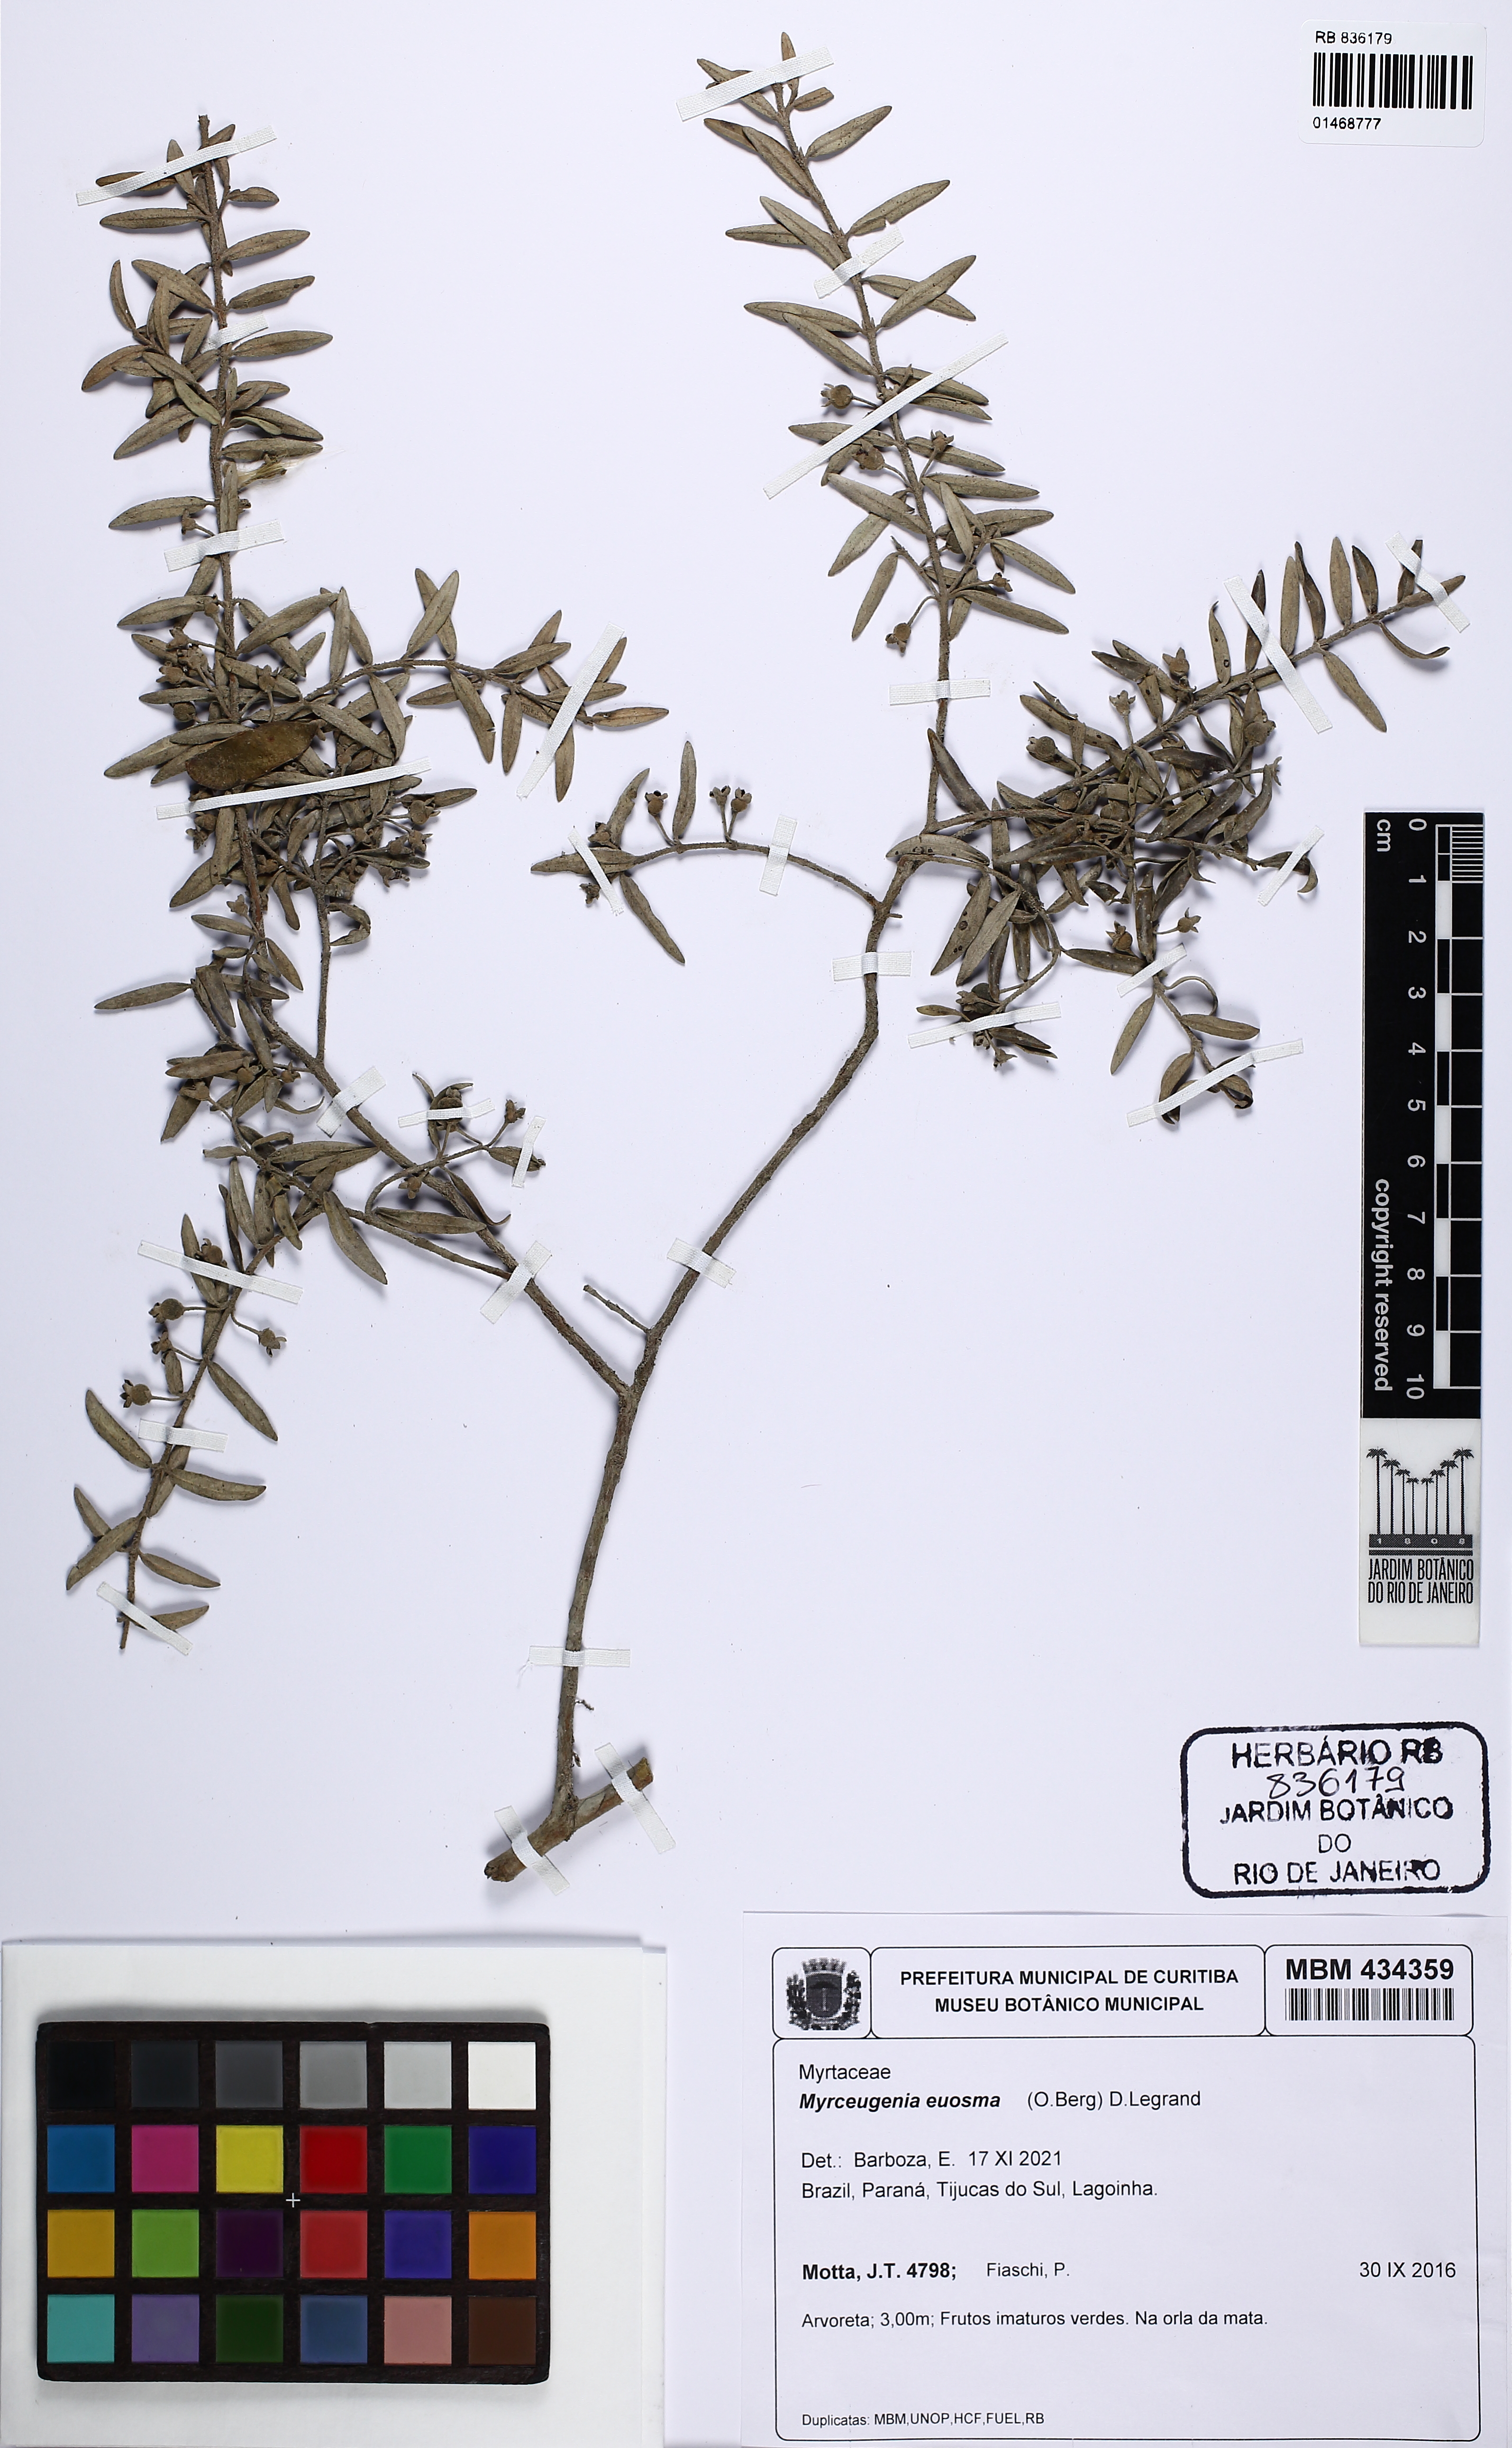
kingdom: Plantae
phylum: Tracheophyta
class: Magnoliopsida
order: Myrtales
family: Myrtaceae
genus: Myrceugenia
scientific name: Myrceugenia euosma
